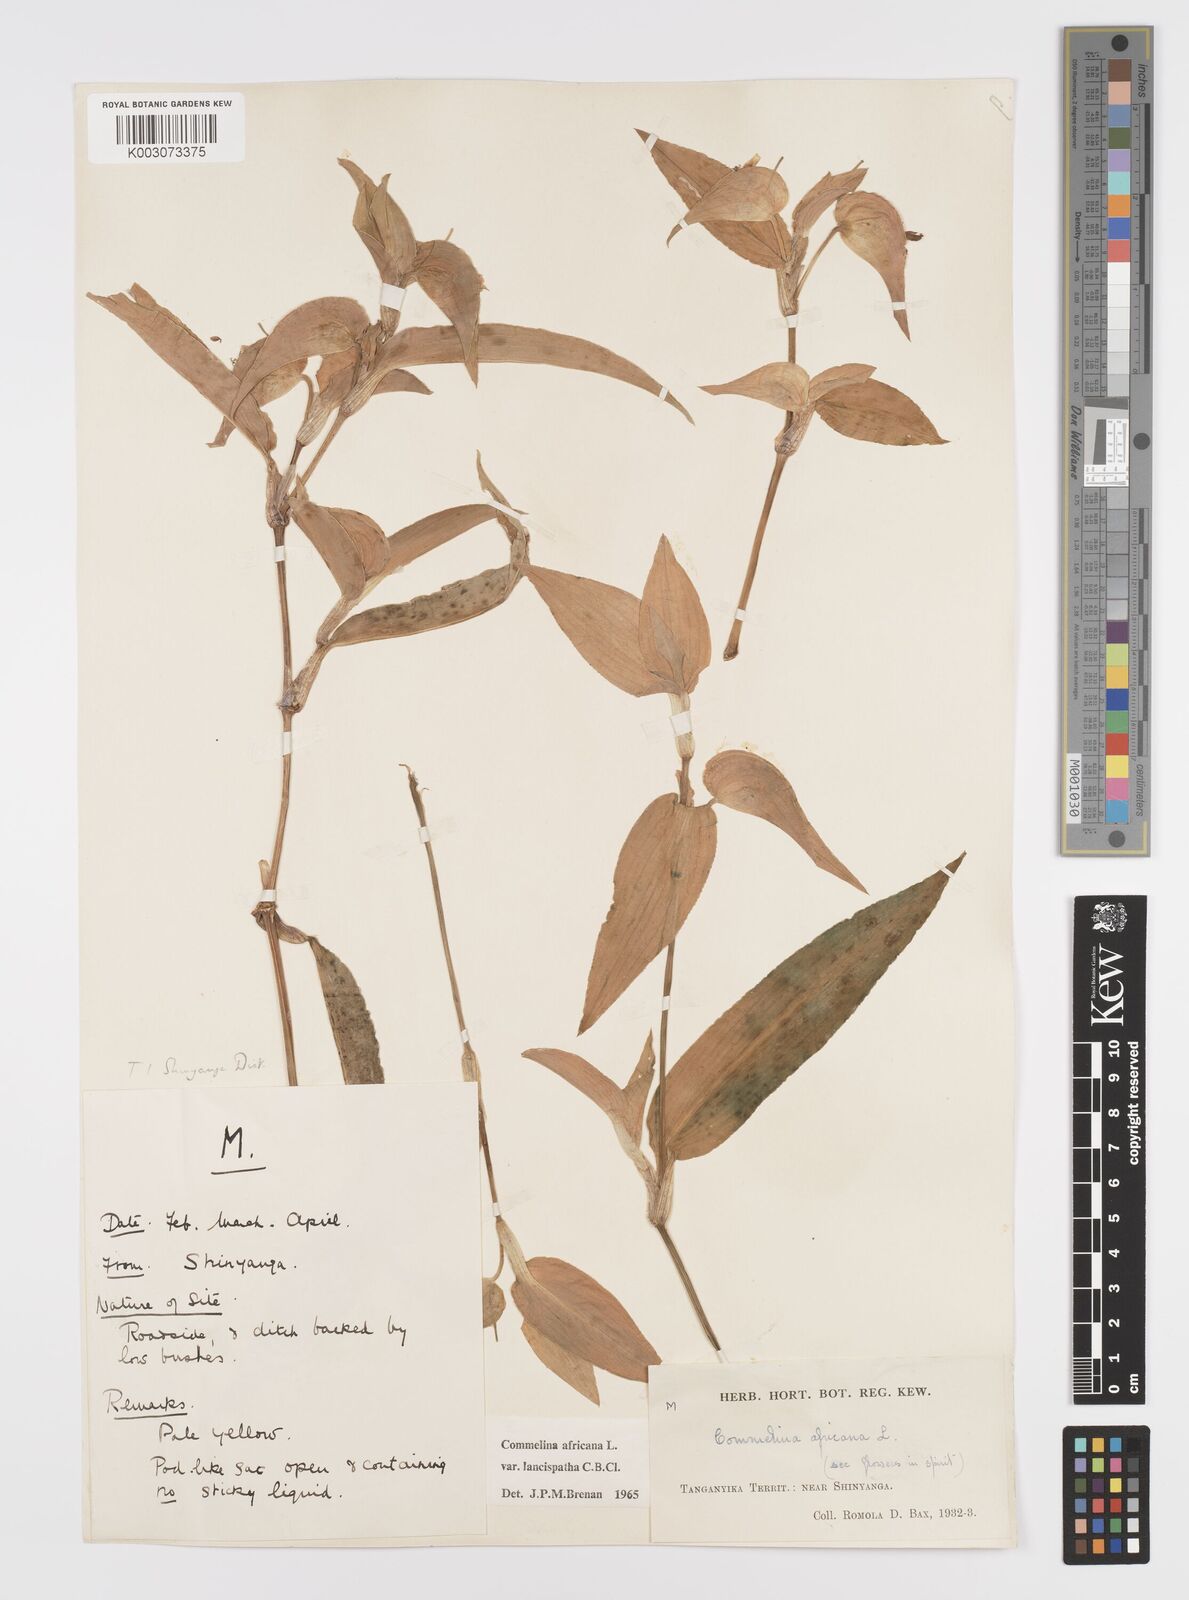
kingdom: Plantae
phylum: Tracheophyta
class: Liliopsida
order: Commelinales
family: Commelinaceae
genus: Commelina
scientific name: Commelina africana
